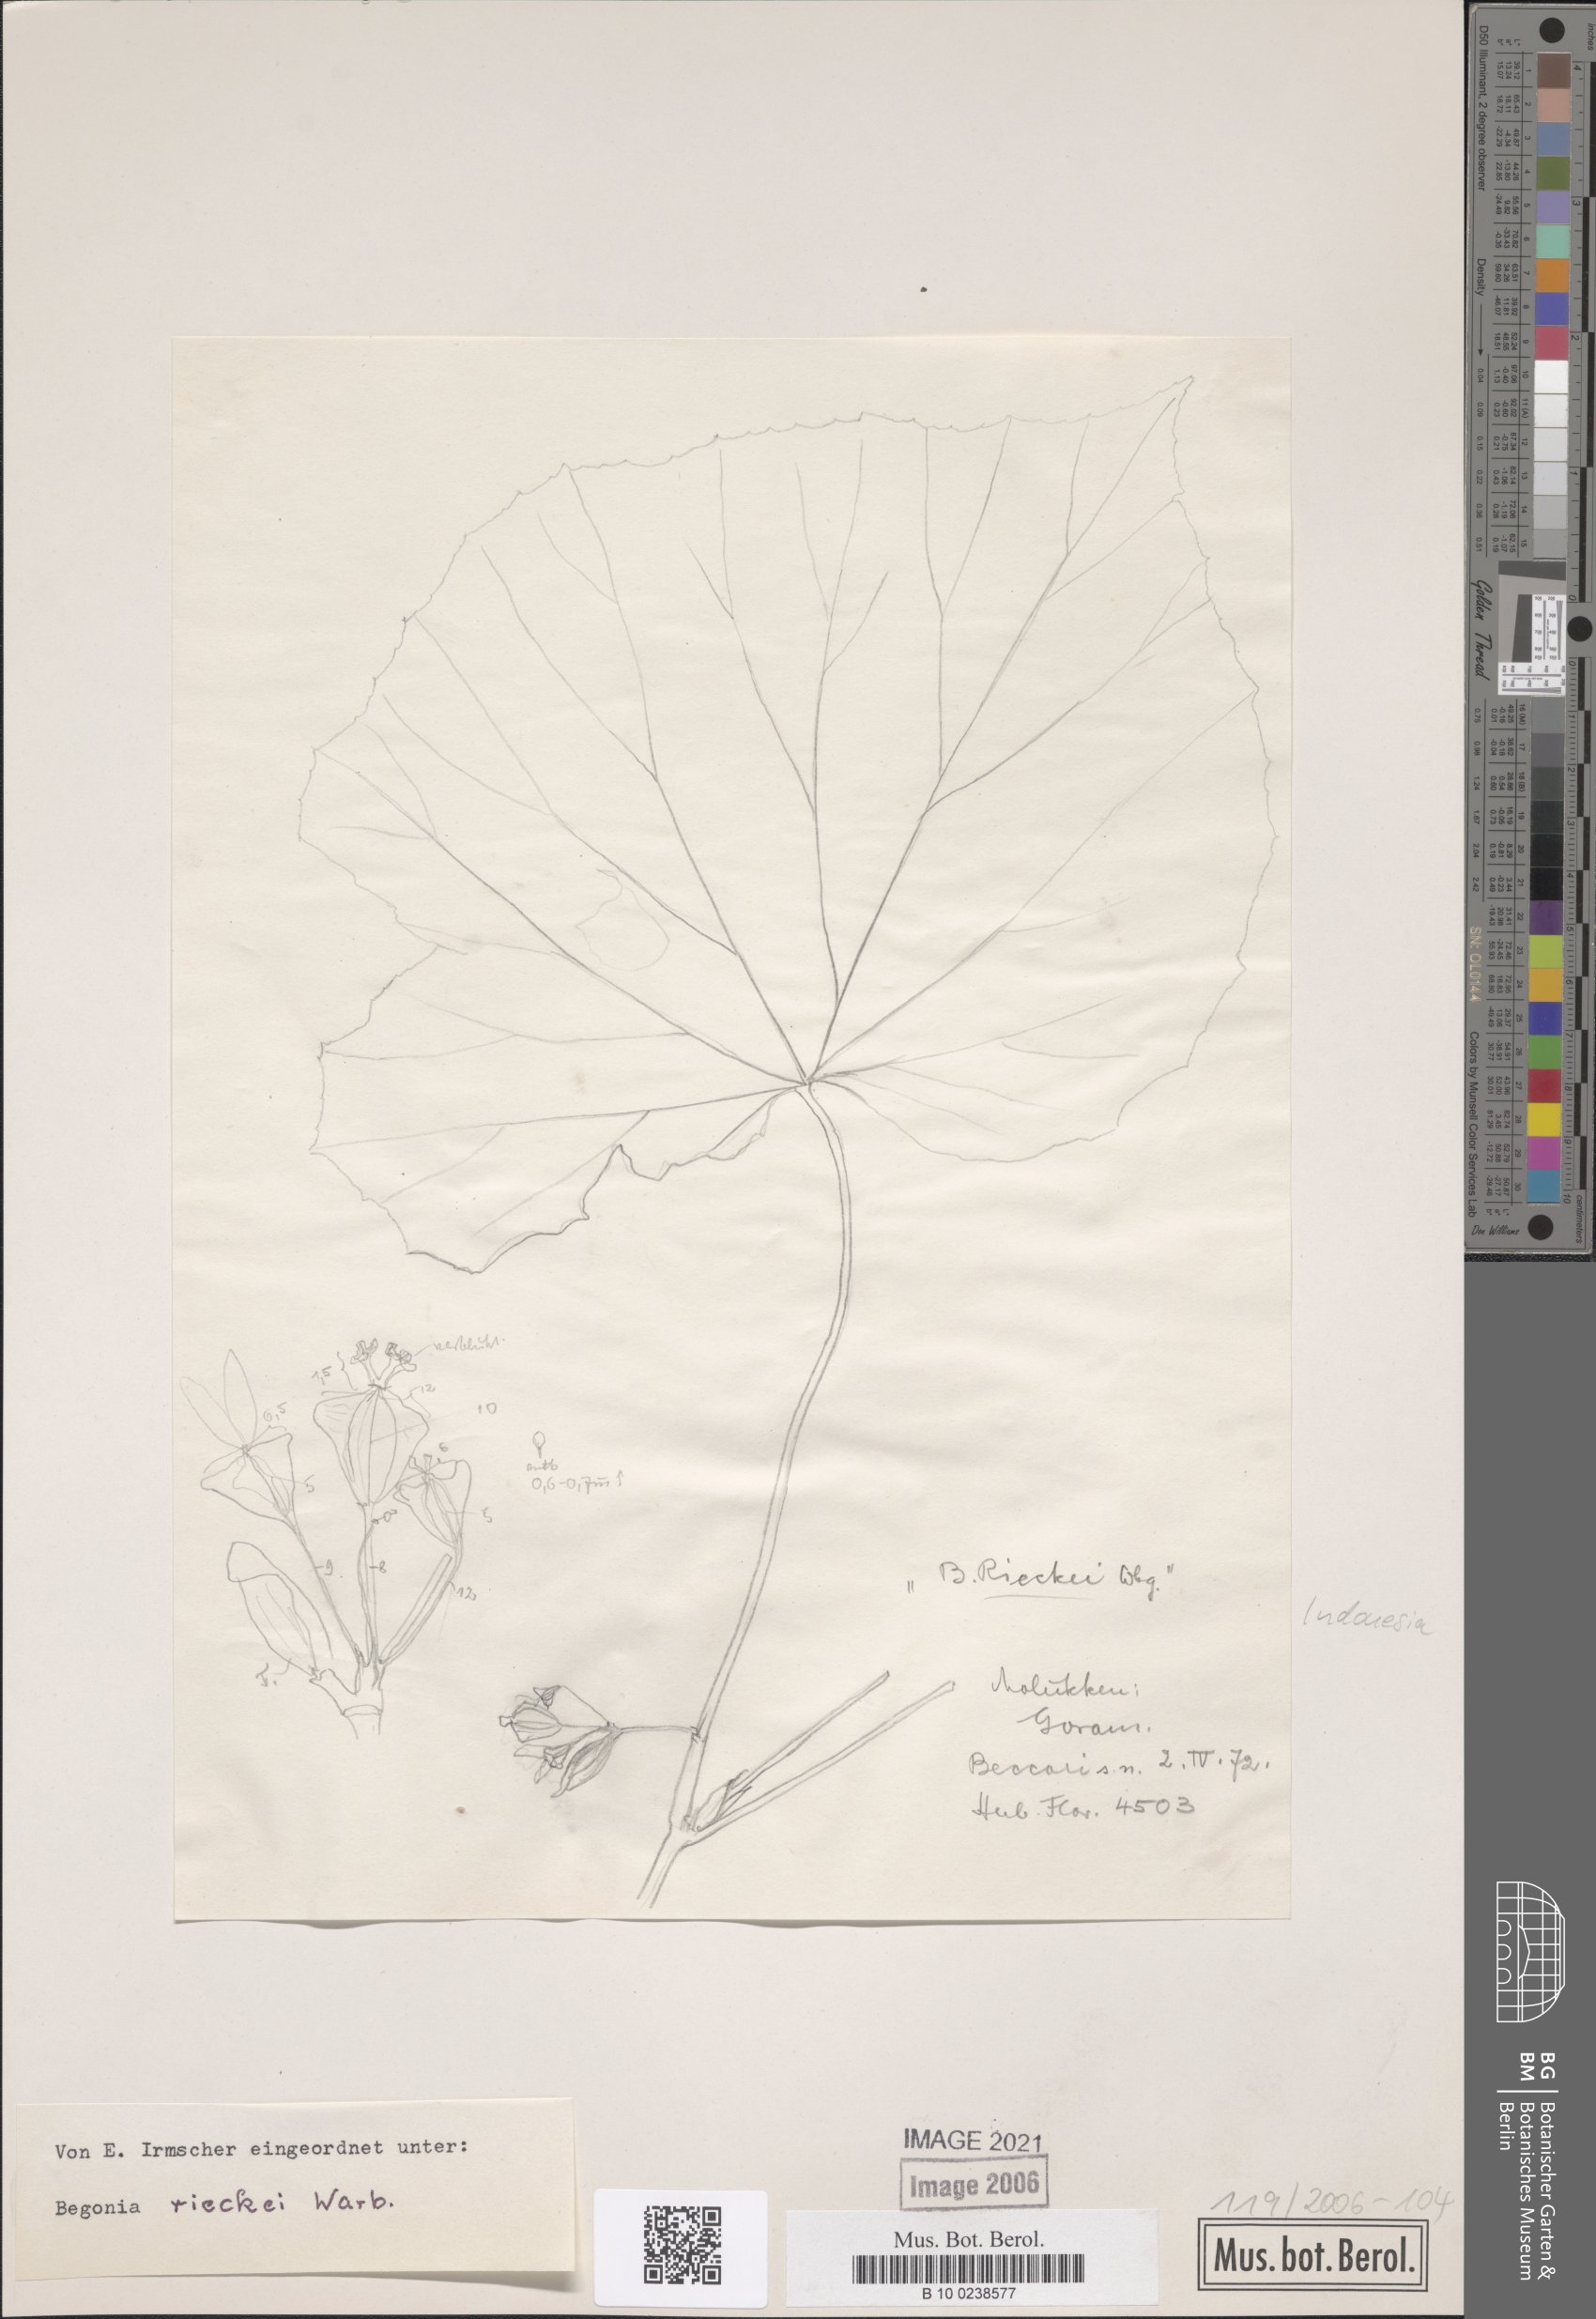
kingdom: Plantae
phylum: Tracheophyta
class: Magnoliopsida
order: Cucurbitales
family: Begoniaceae
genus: Begonia
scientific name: Begonia rieckei
